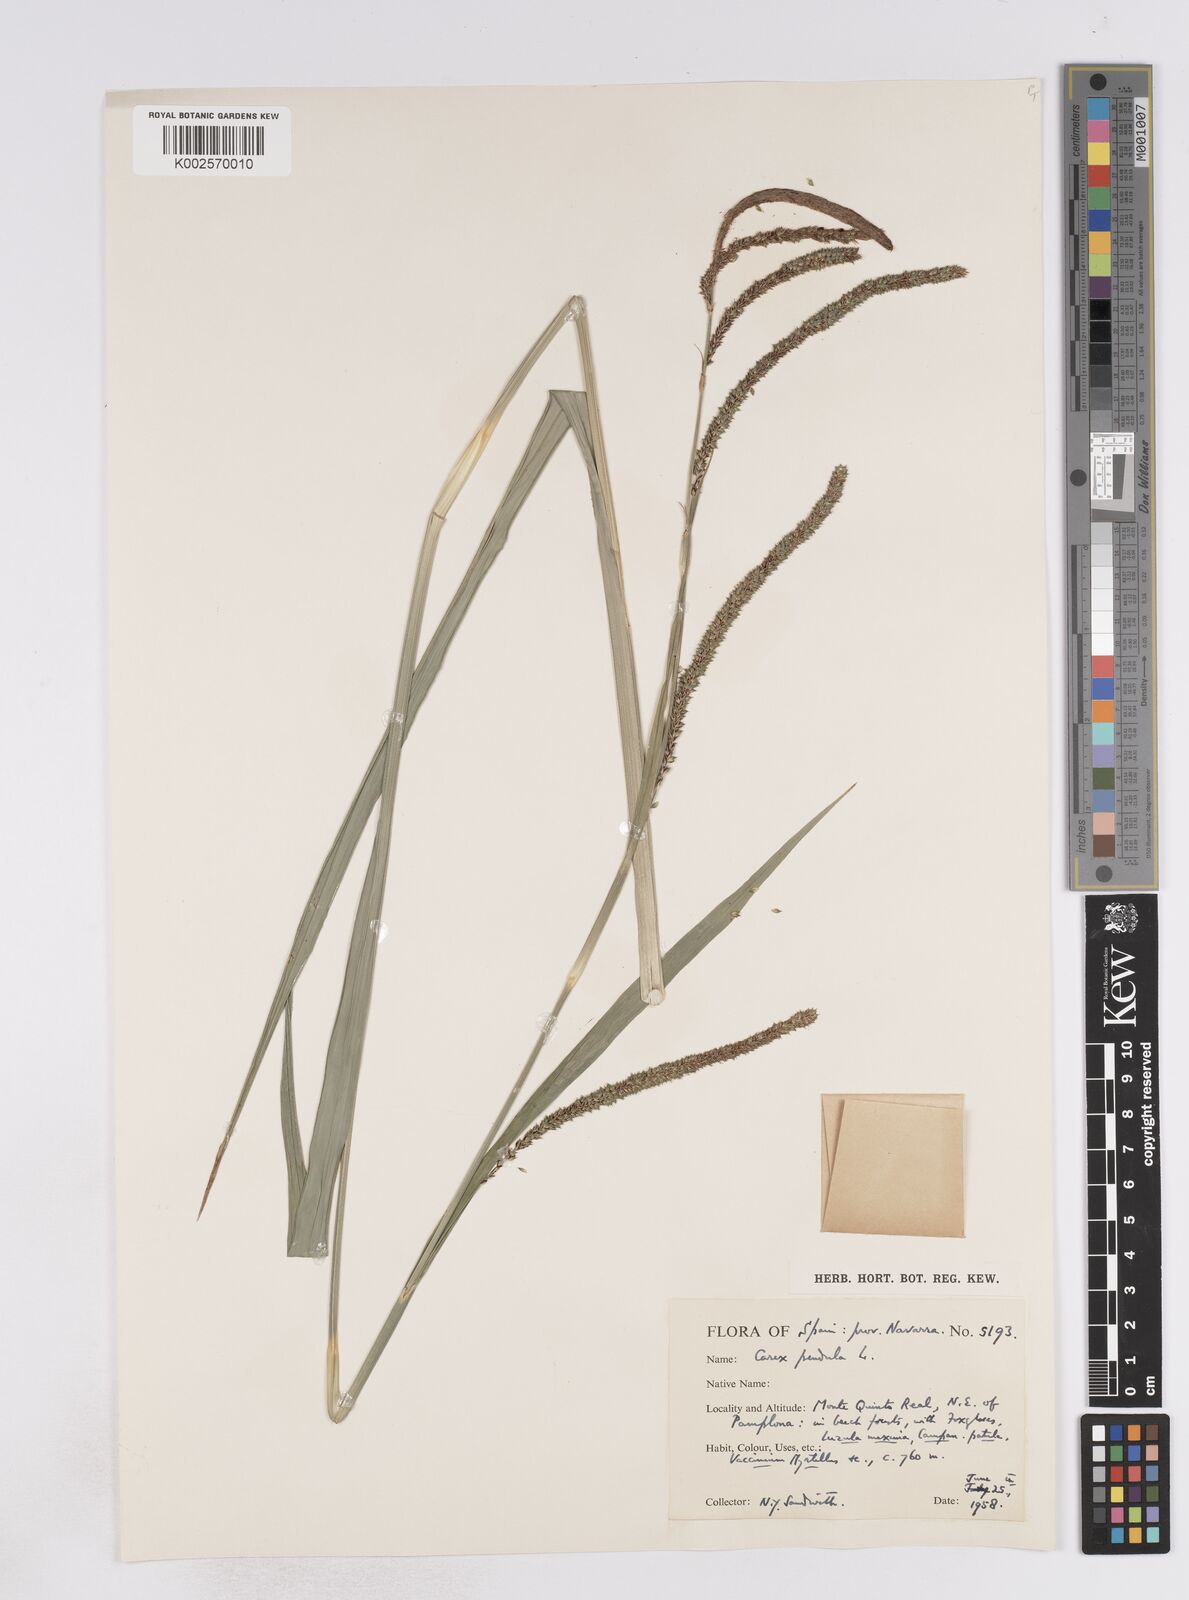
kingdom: Plantae
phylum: Tracheophyta
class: Liliopsida
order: Poales
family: Cyperaceae
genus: Carex
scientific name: Carex pendula
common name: Pendulous sedge
